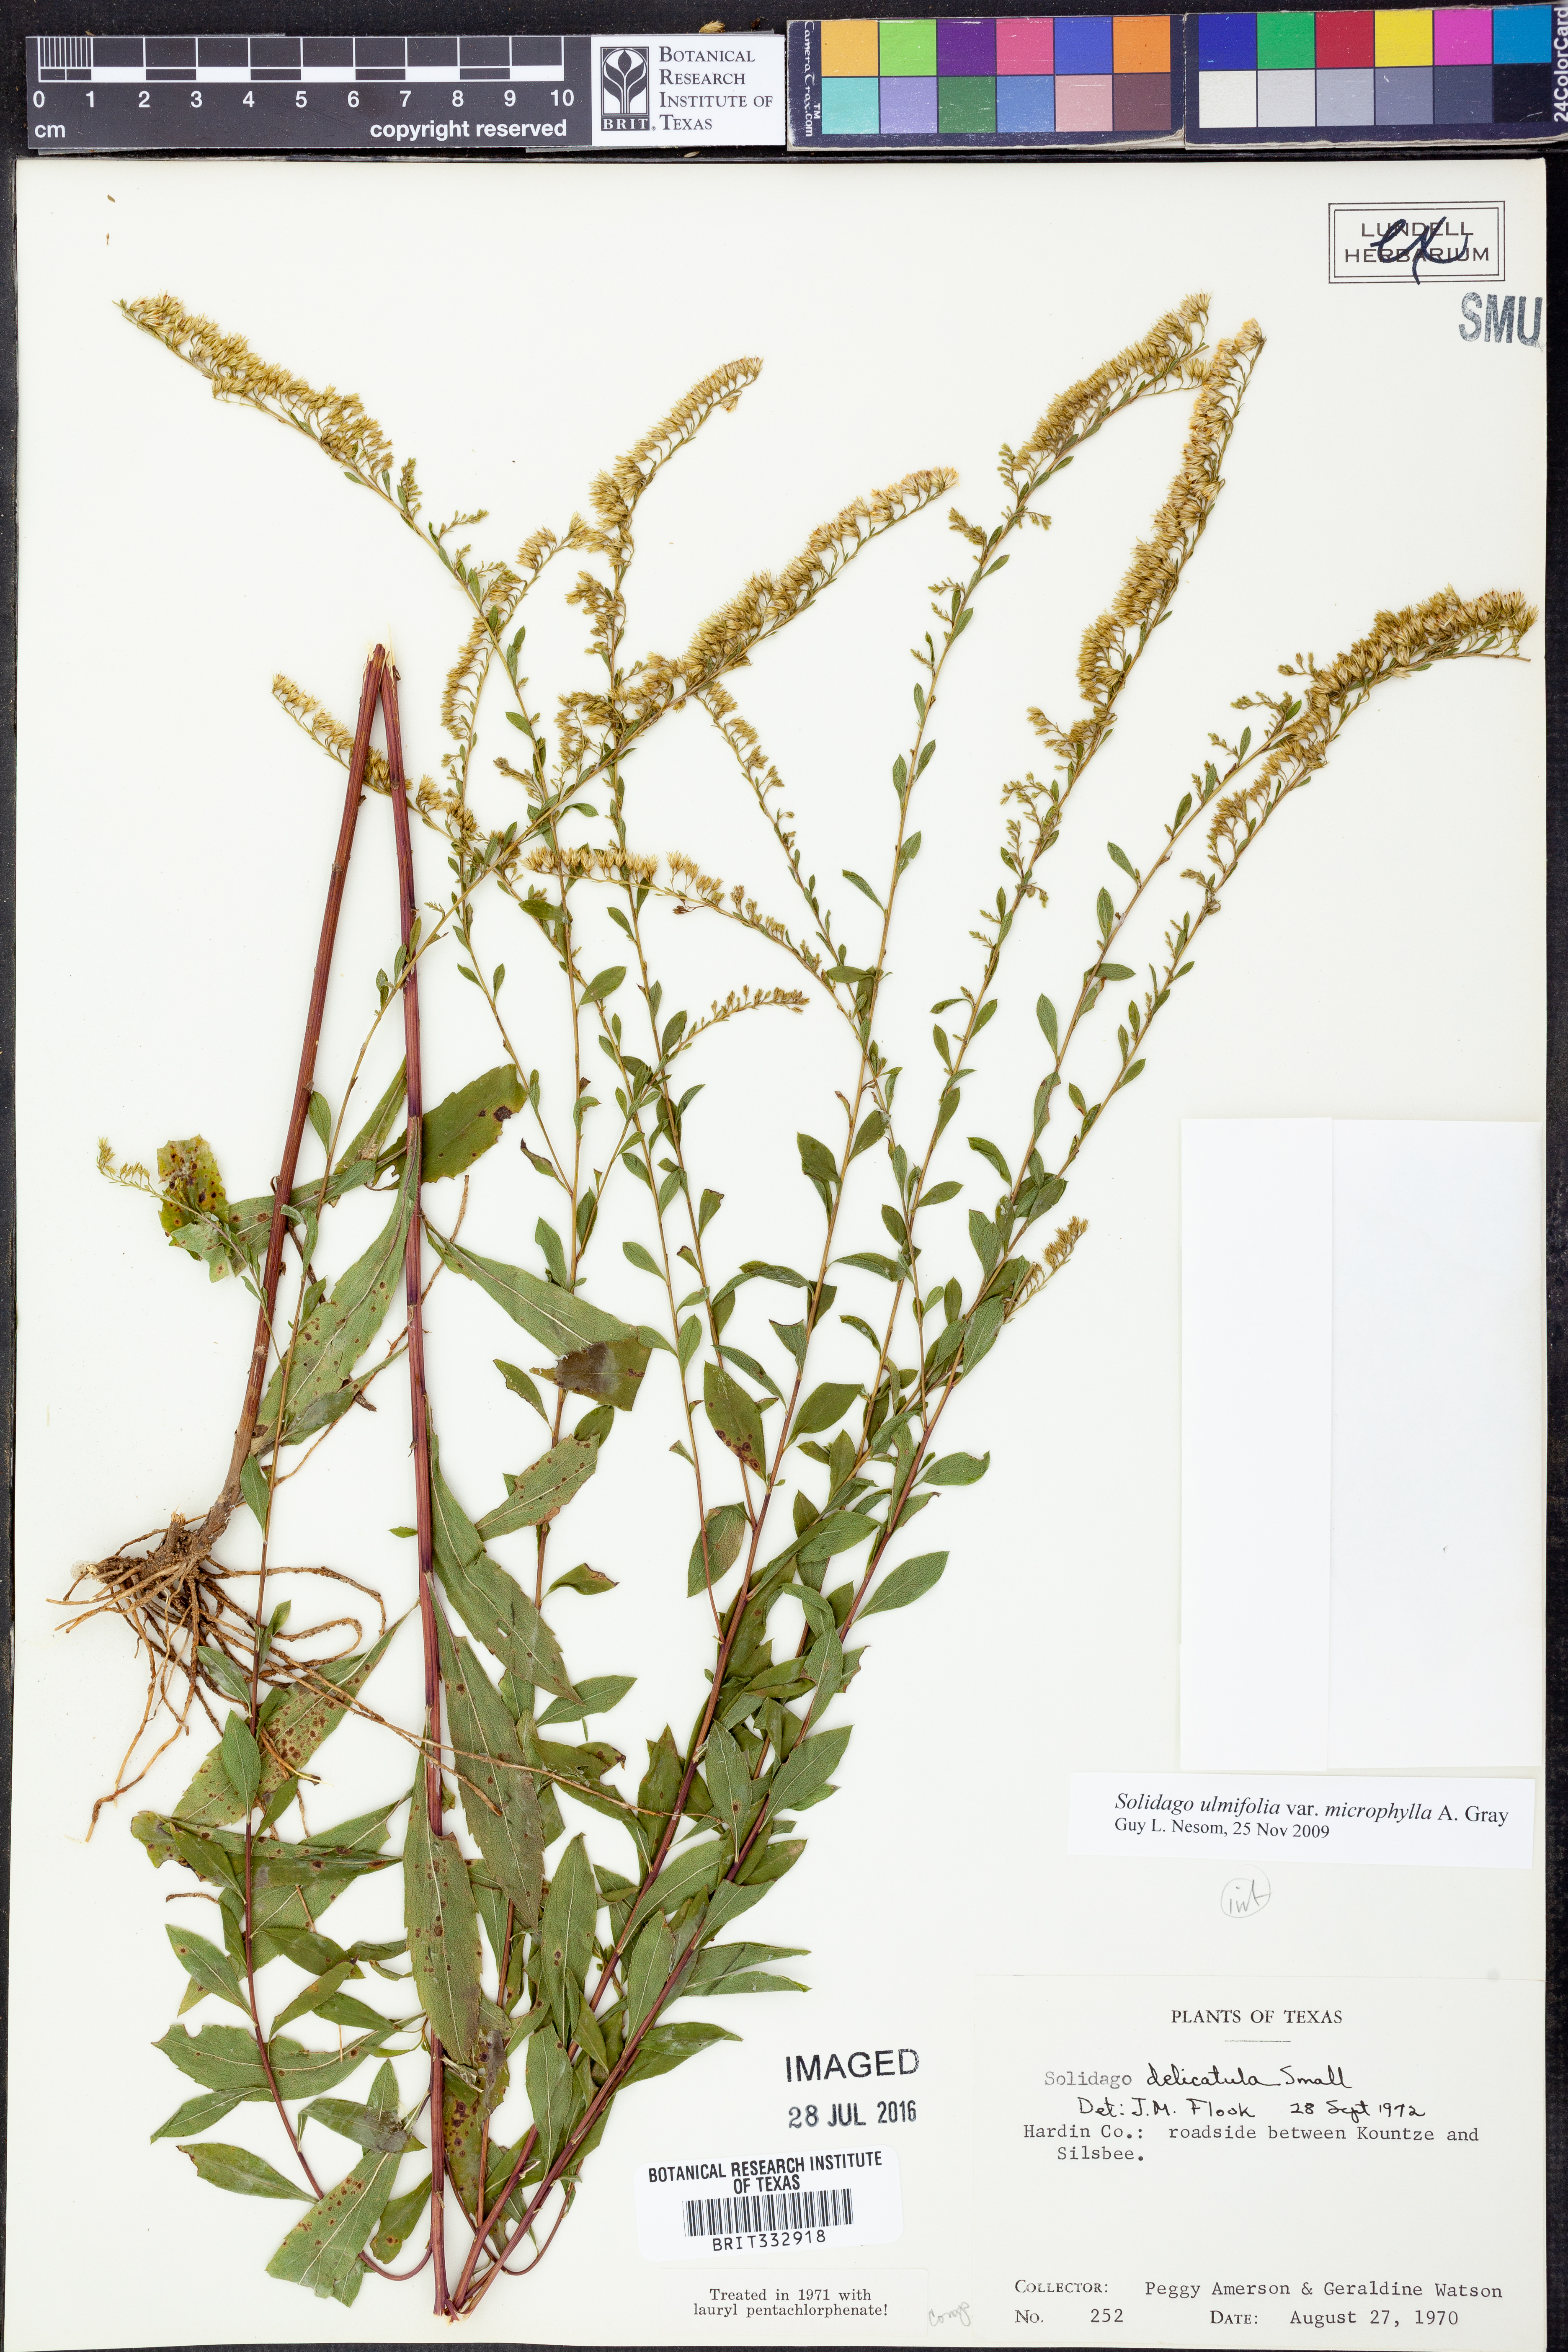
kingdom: Plantae
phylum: Tracheophyta
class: Magnoliopsida
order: Asterales
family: Asteraceae
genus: Solidago
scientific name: Solidago delicatula
